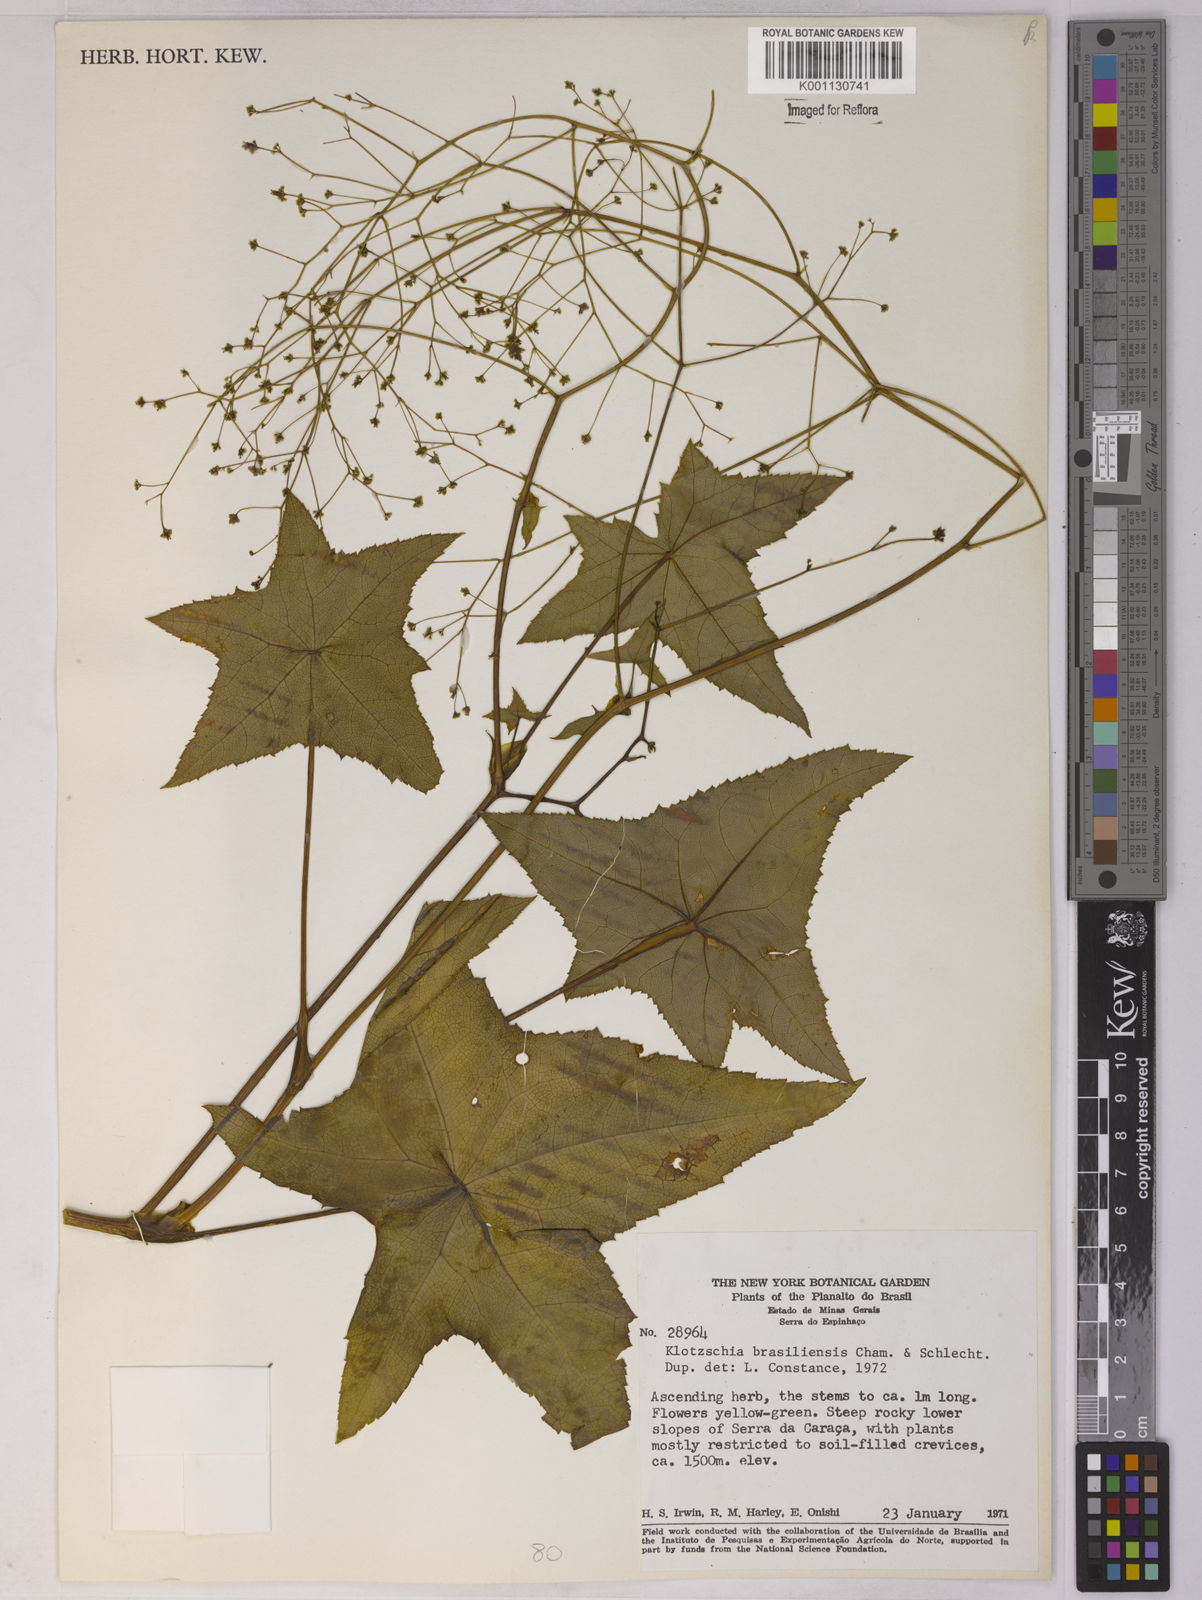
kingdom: Plantae
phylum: Tracheophyta
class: Magnoliopsida
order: Apiales
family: Apiaceae
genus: Klotzschia
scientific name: Klotzschia brasiliensis
